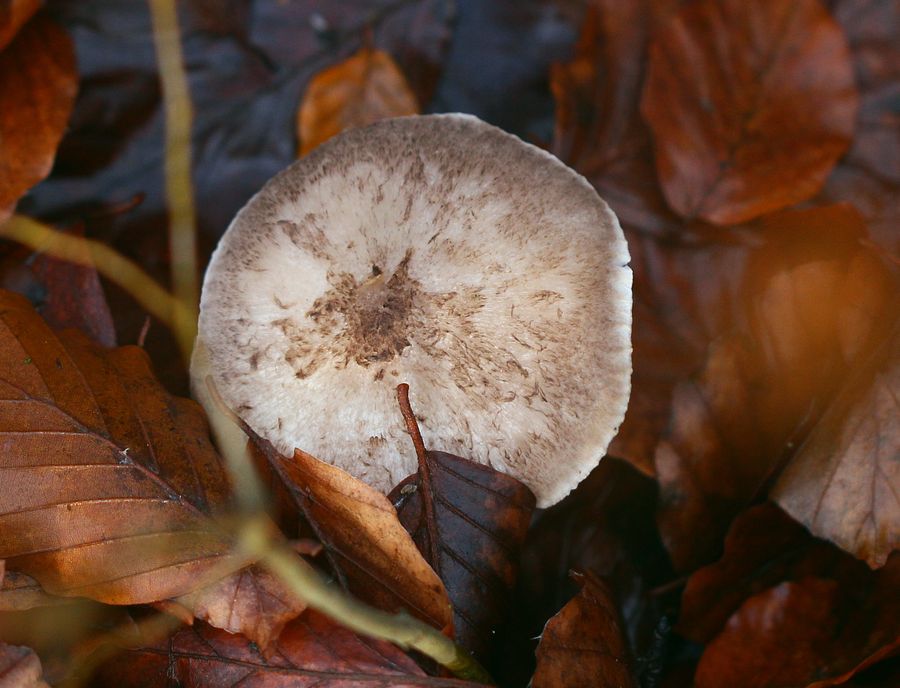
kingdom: Fungi
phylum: Basidiomycota
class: Agaricomycetes
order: Agaricales
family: Tricholomataceae
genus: Tricholoma
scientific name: Tricholoma scalpturatum
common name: gulplettet ridderhat
